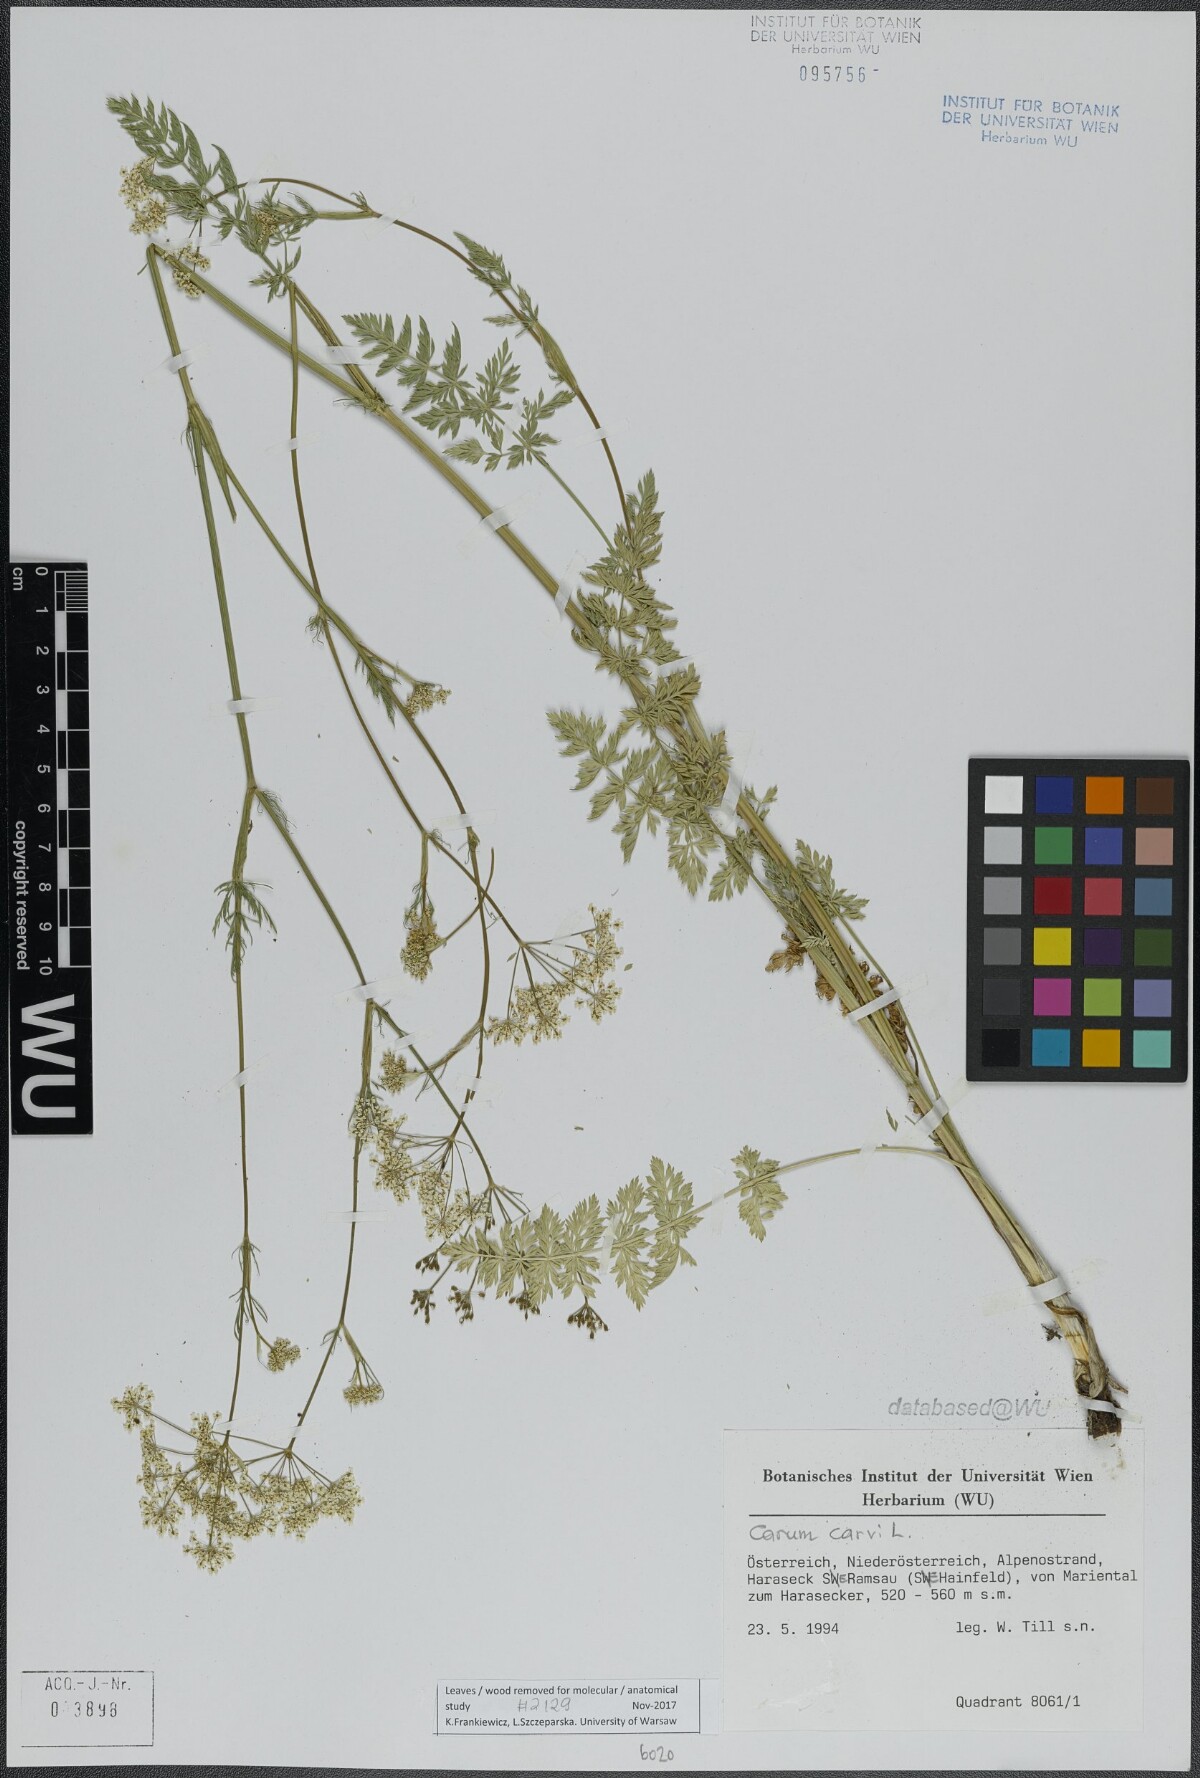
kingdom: Plantae
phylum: Tracheophyta
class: Magnoliopsida
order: Apiales
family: Apiaceae
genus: Carum
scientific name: Carum carvi
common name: Caraway
